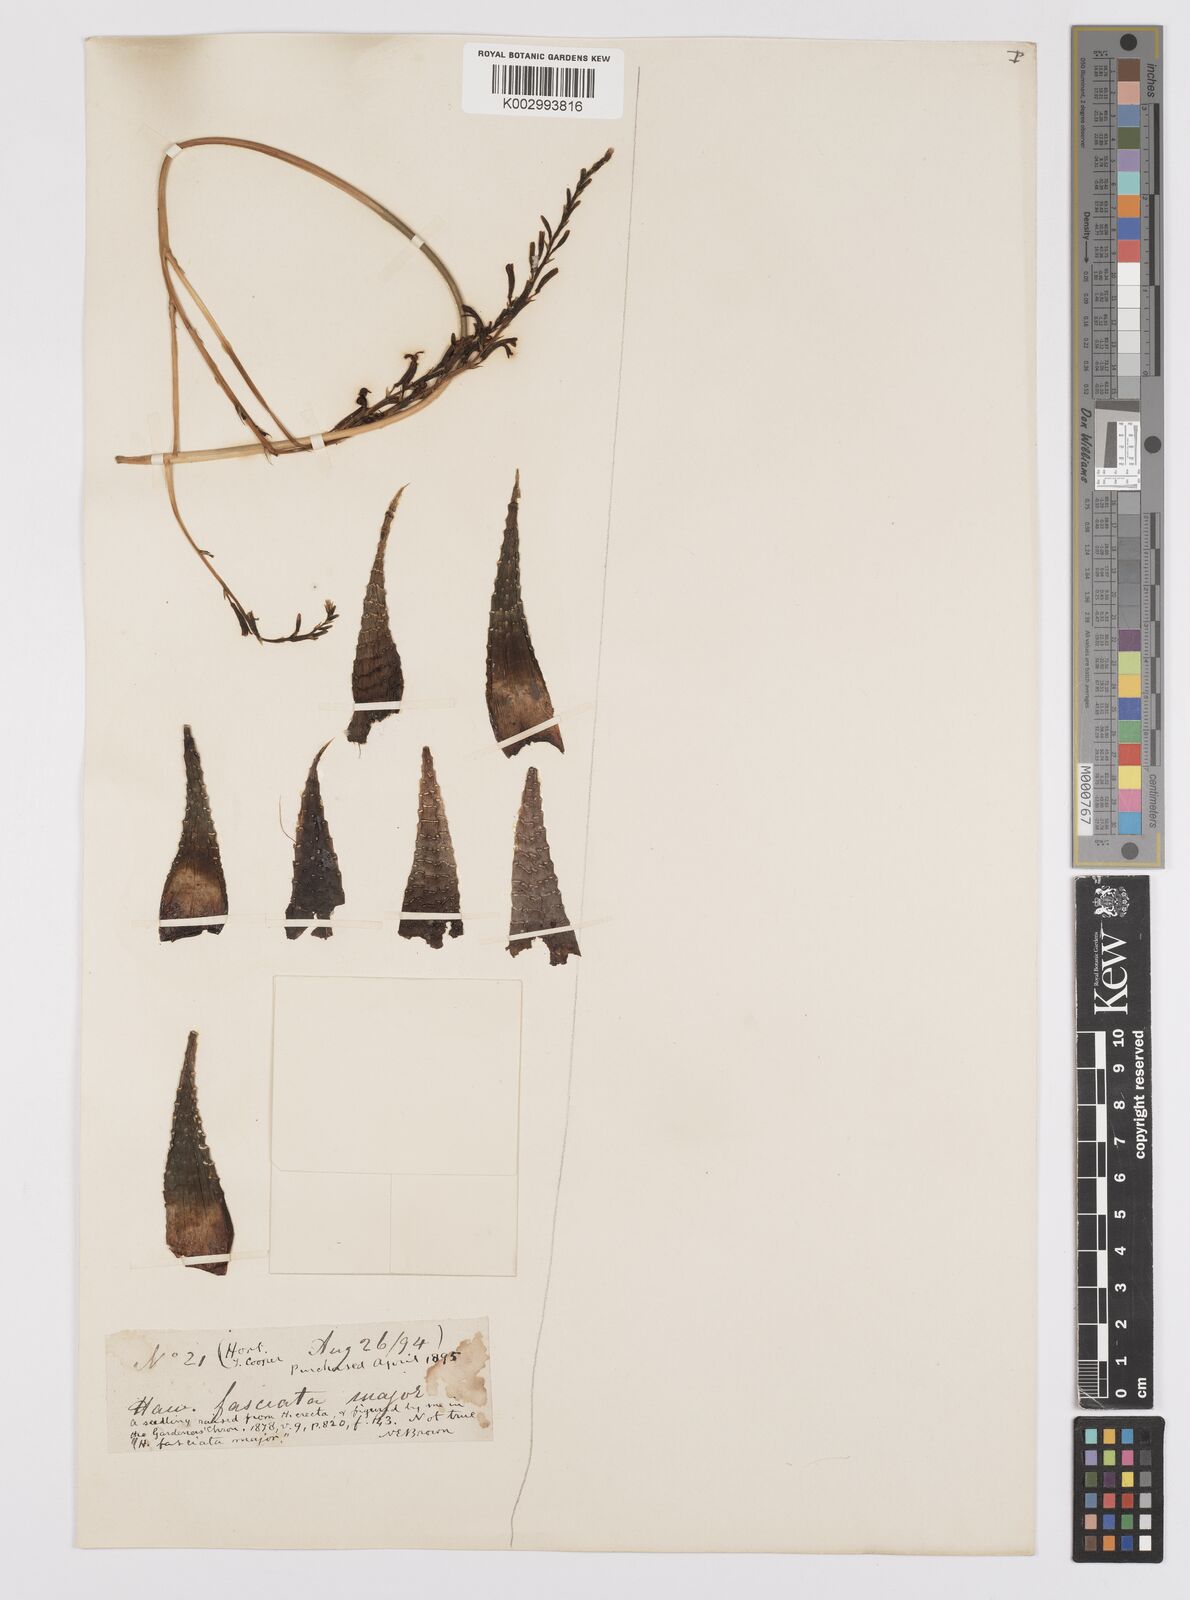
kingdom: Plantae
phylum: Tracheophyta
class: Liliopsida
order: Asparagales
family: Asphodelaceae
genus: Tulista
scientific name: Tulista pumila
